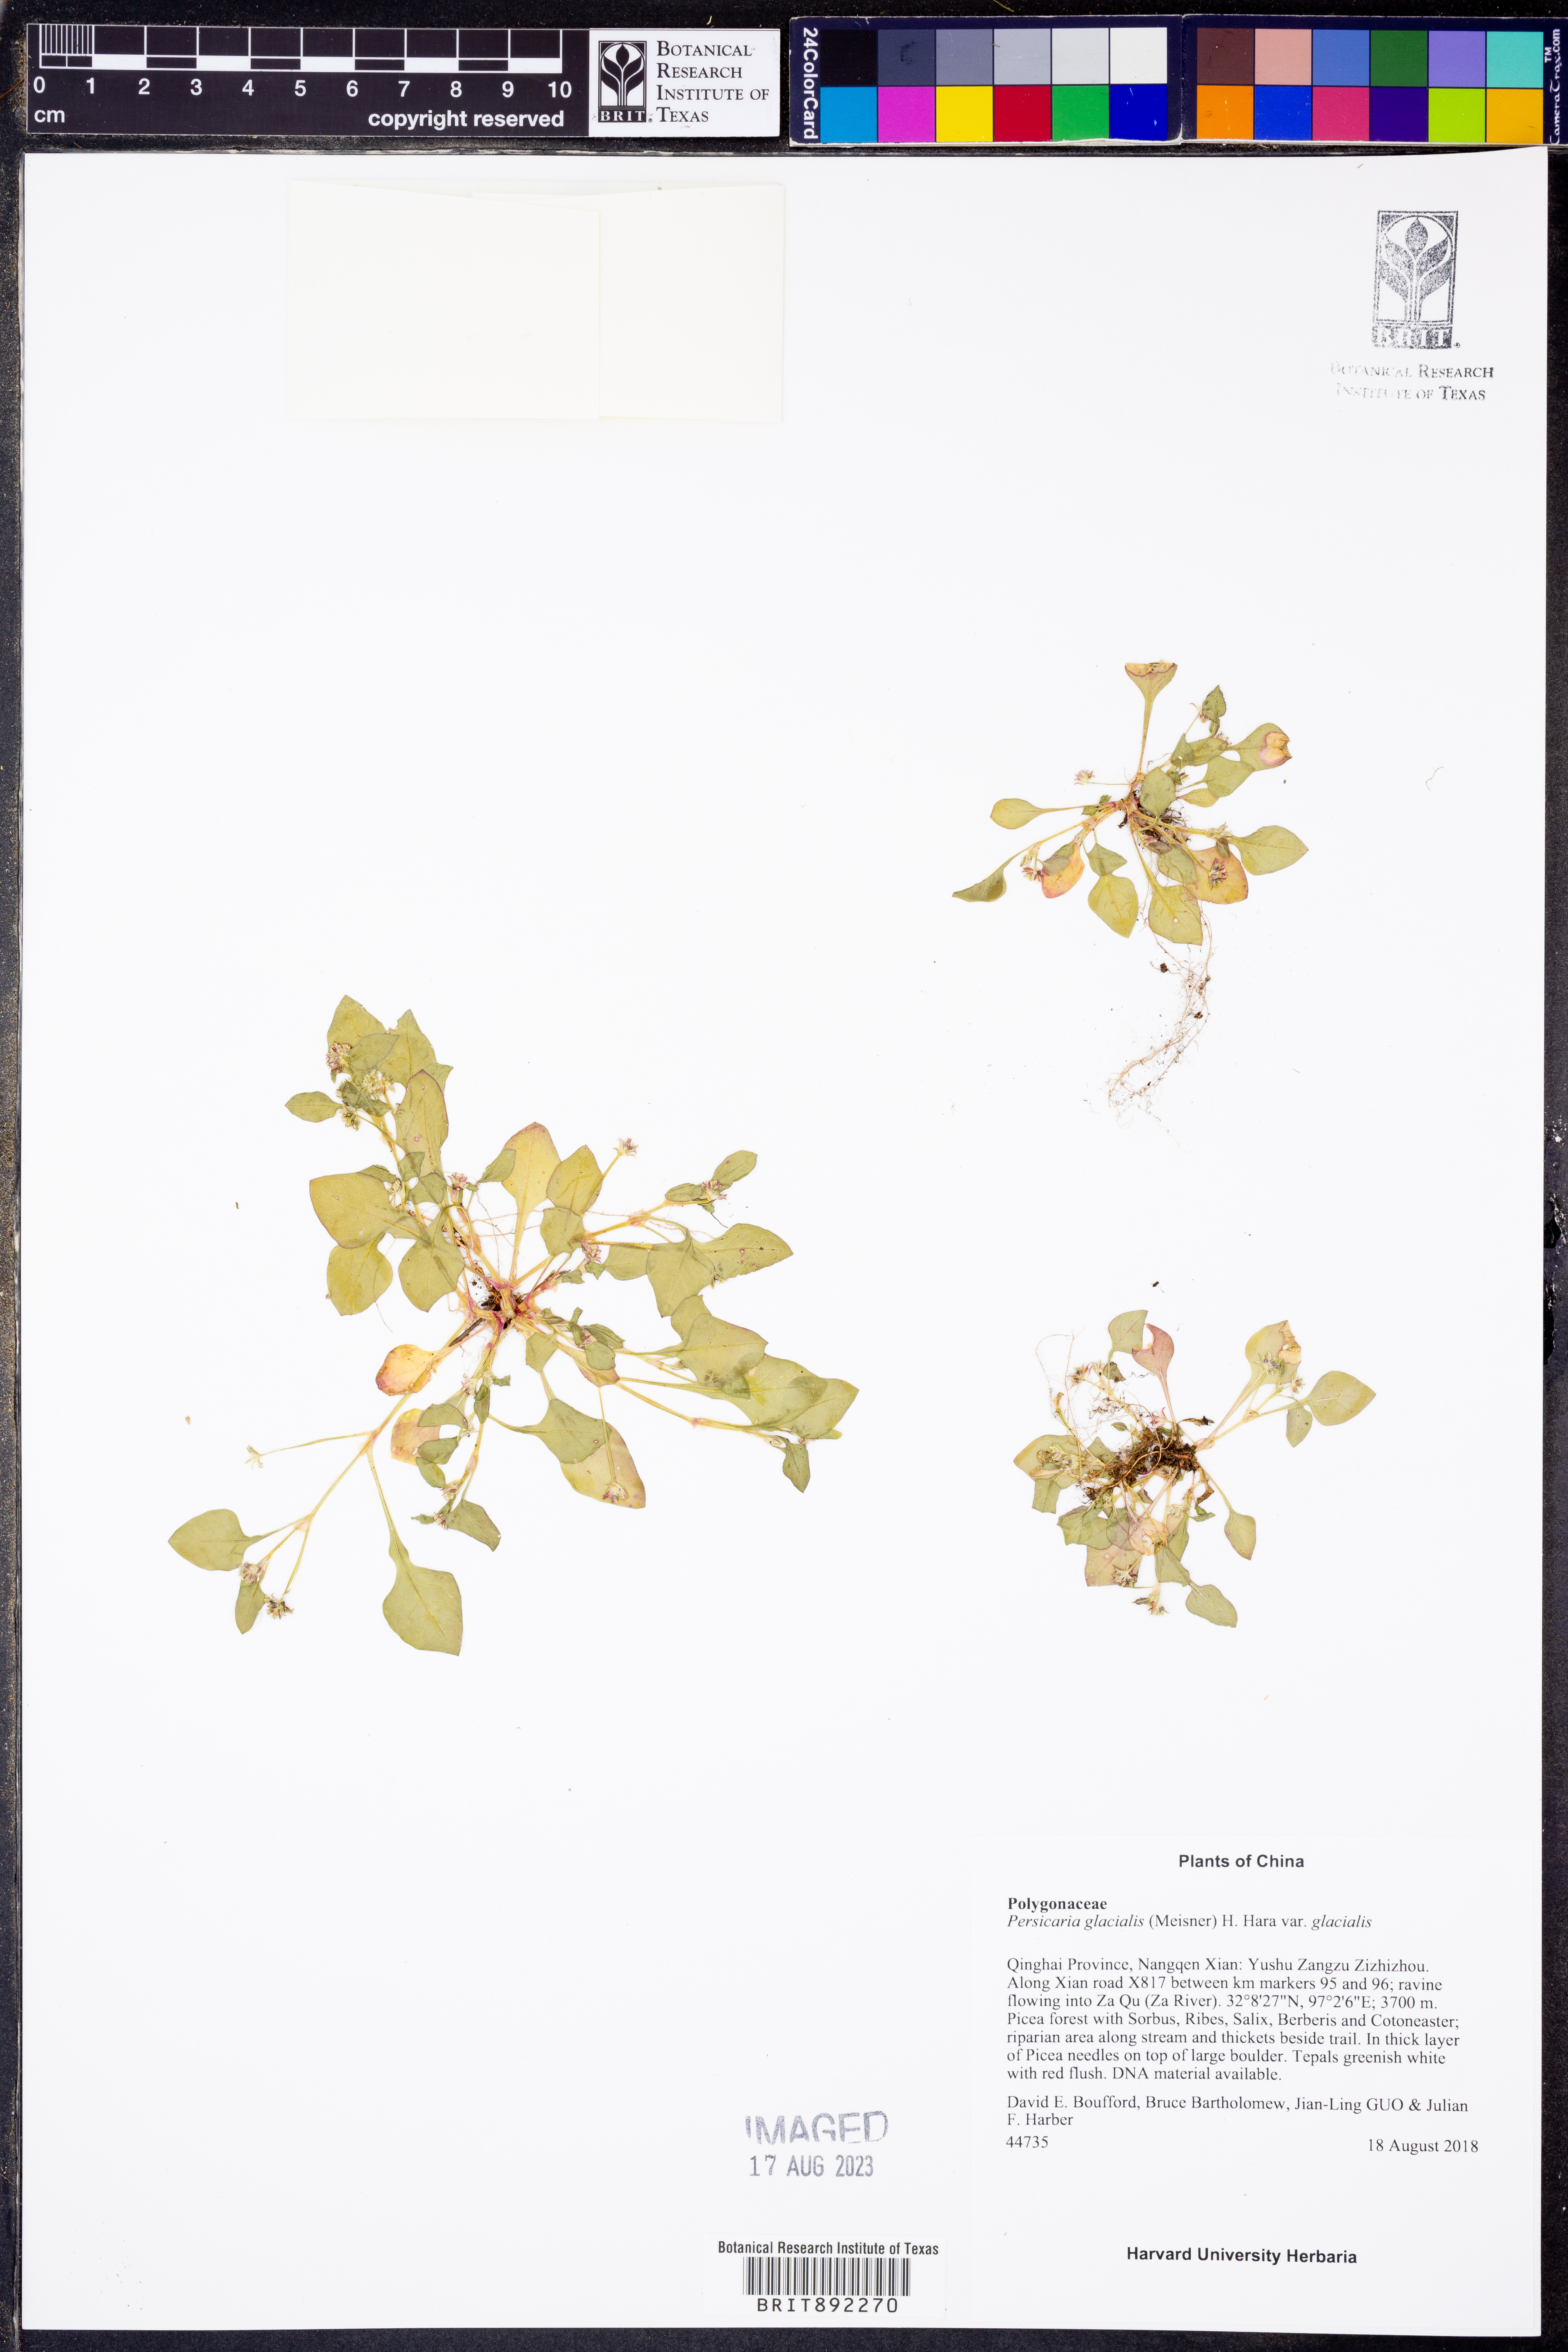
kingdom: Plantae
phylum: Tracheophyta
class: Magnoliopsida
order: Caryophyllales
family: Polygonaceae
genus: Persicaria
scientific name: Persicaria glacialis
